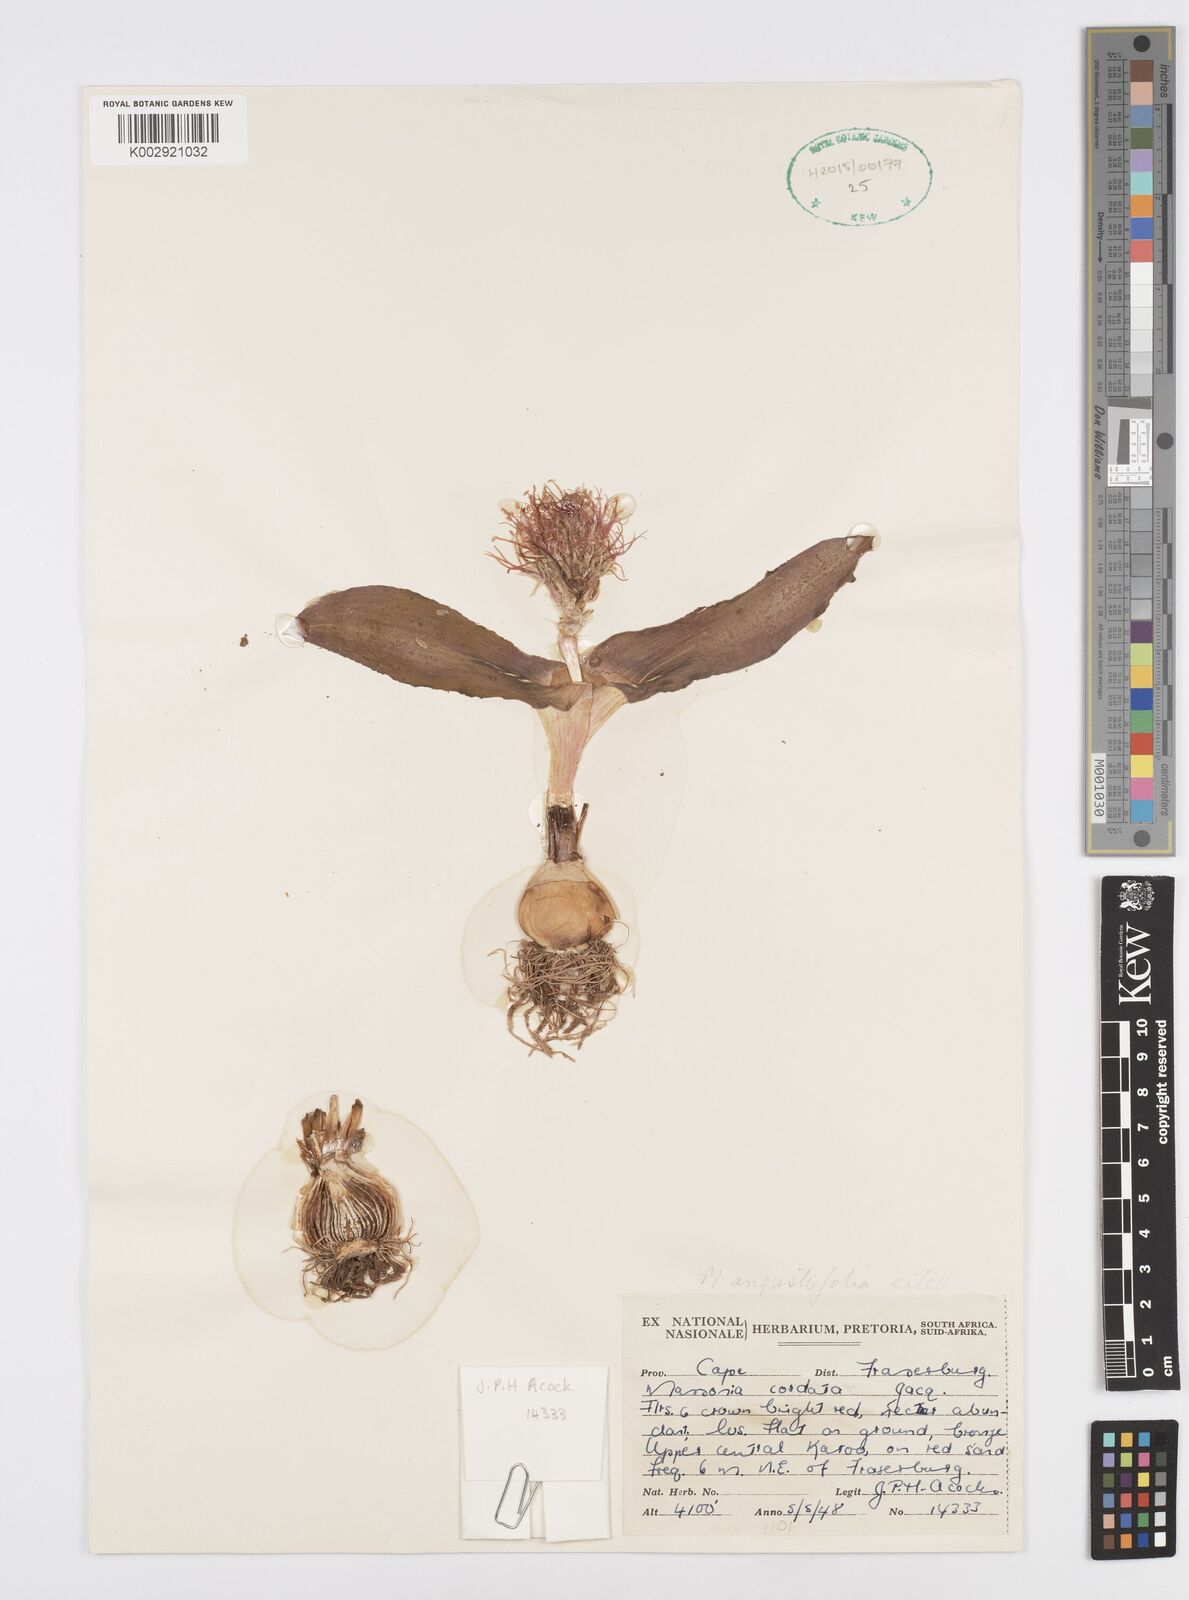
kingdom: Plantae
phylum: Tracheophyta
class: Liliopsida
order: Asparagales
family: Asparagaceae
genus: Massonia
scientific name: Massonia
